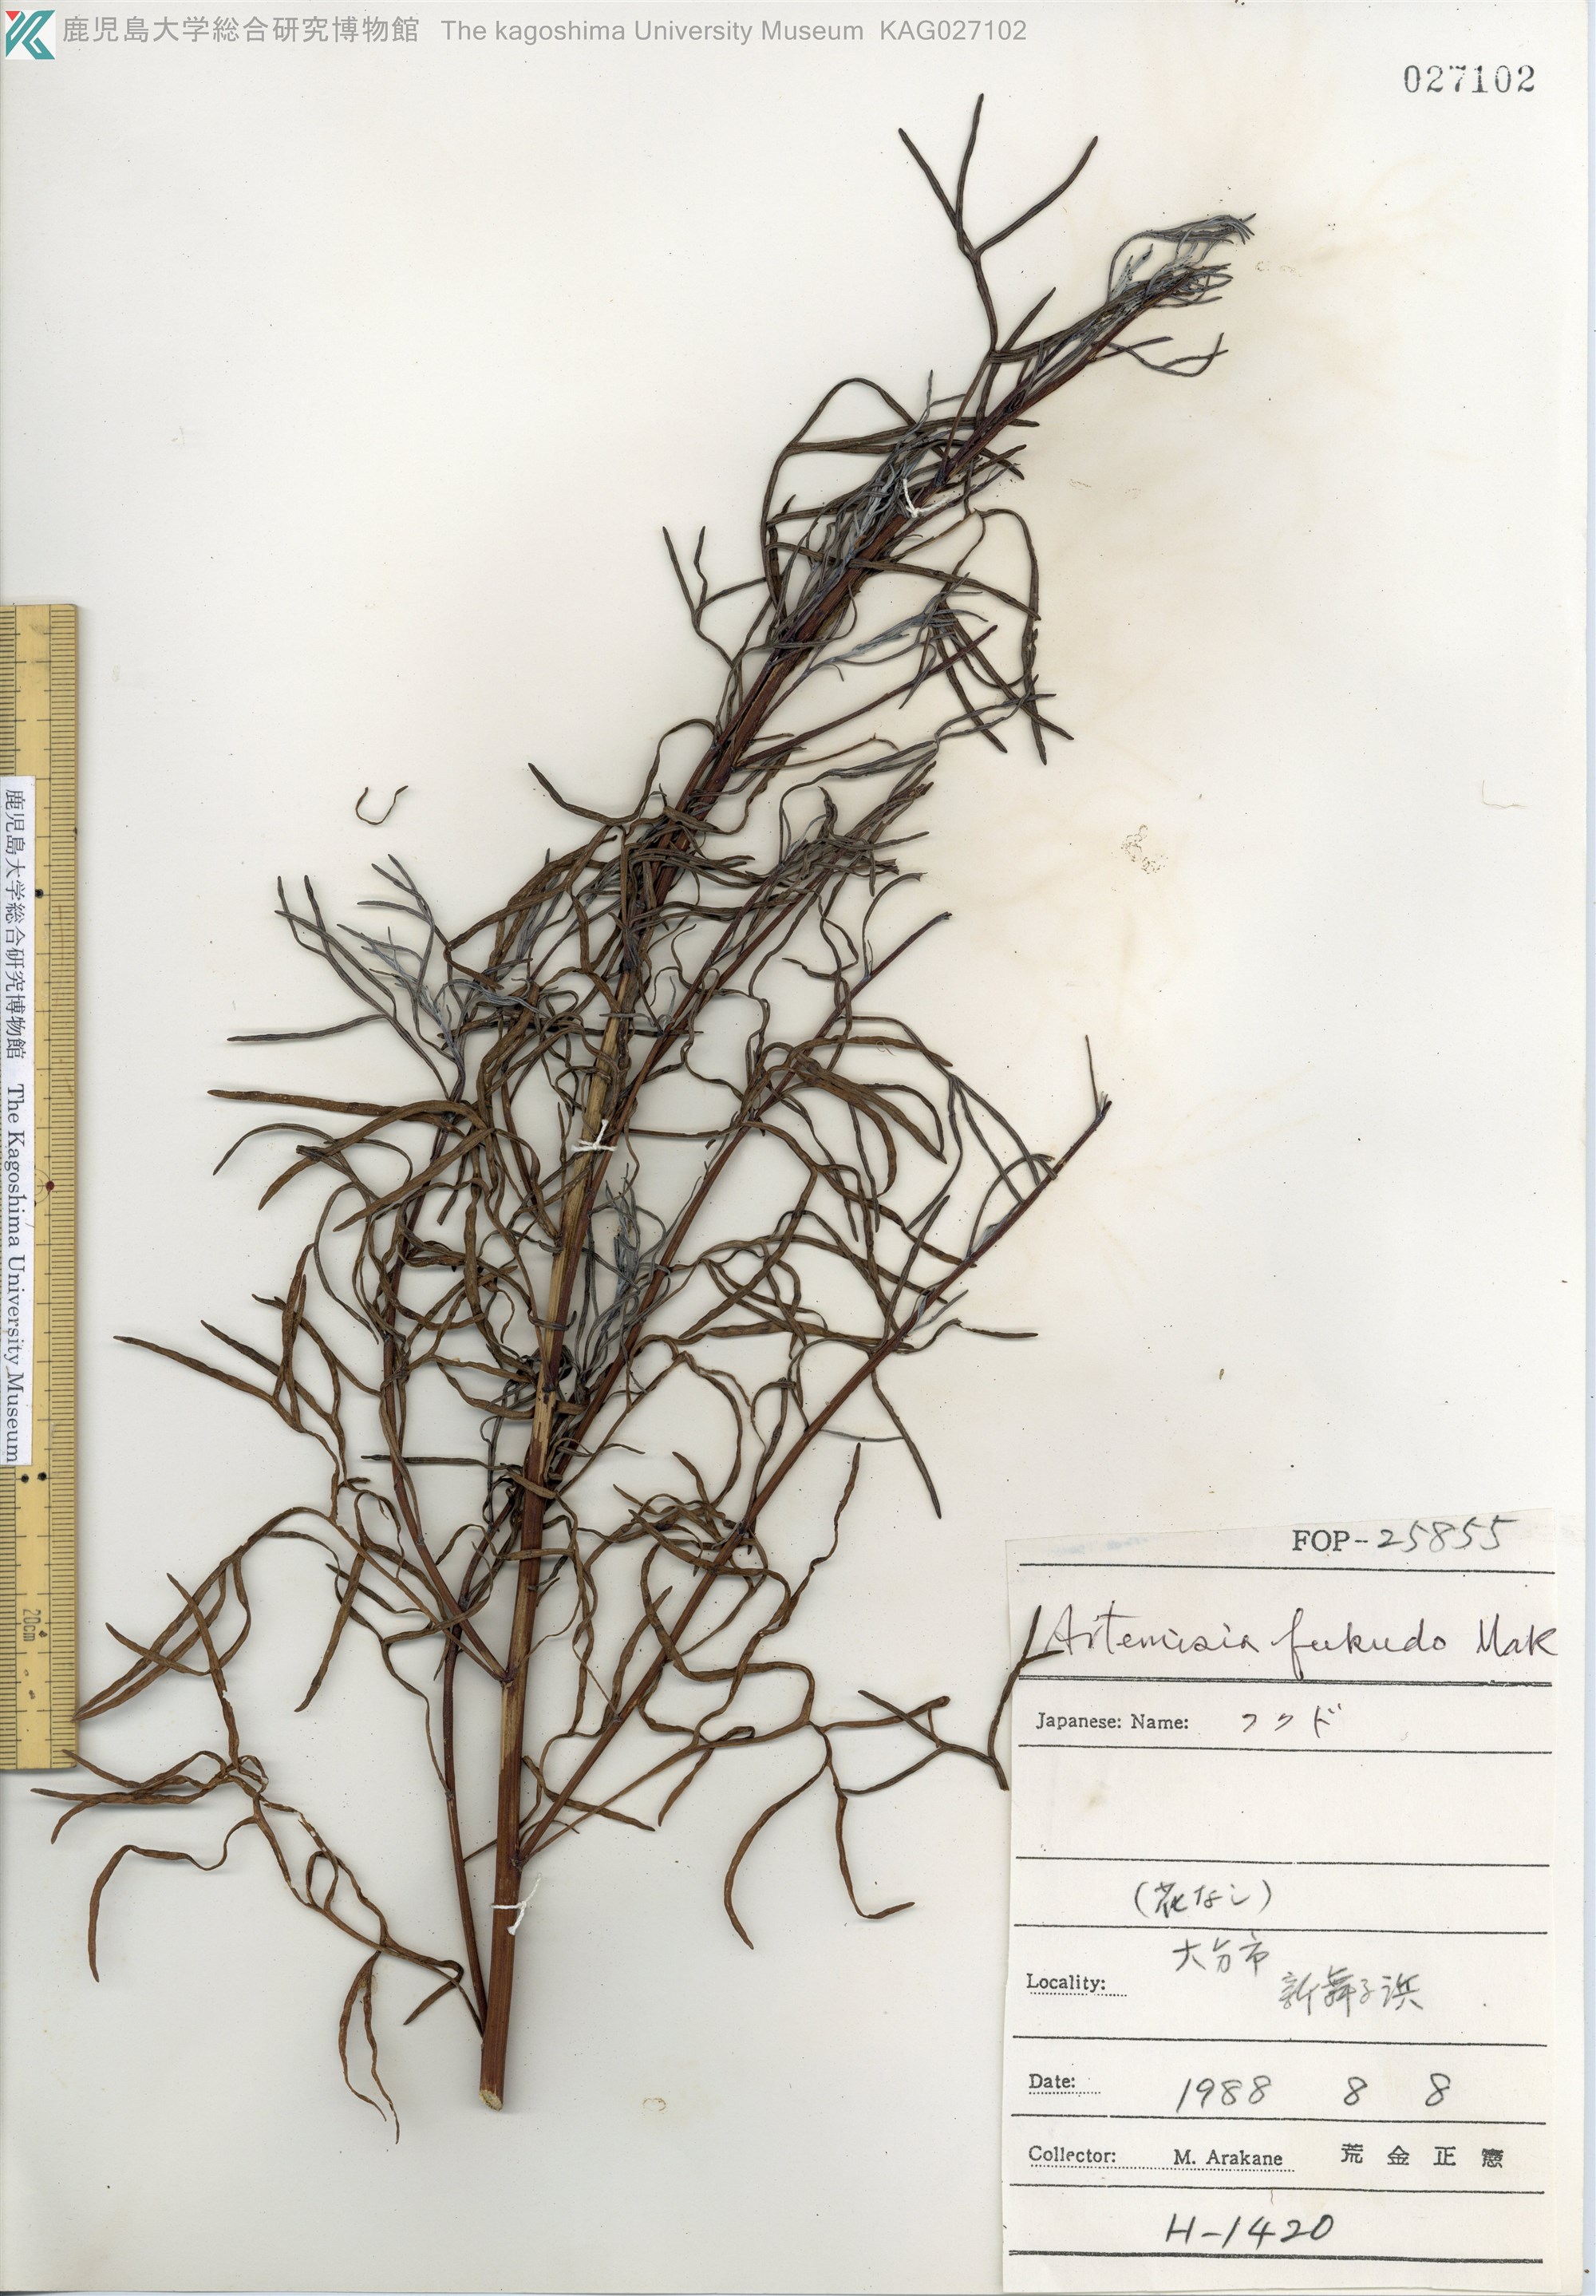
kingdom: Plantae
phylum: Tracheophyta
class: Magnoliopsida
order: Asterales
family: Asteraceae
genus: Artemisia
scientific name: Artemisia fukudo
